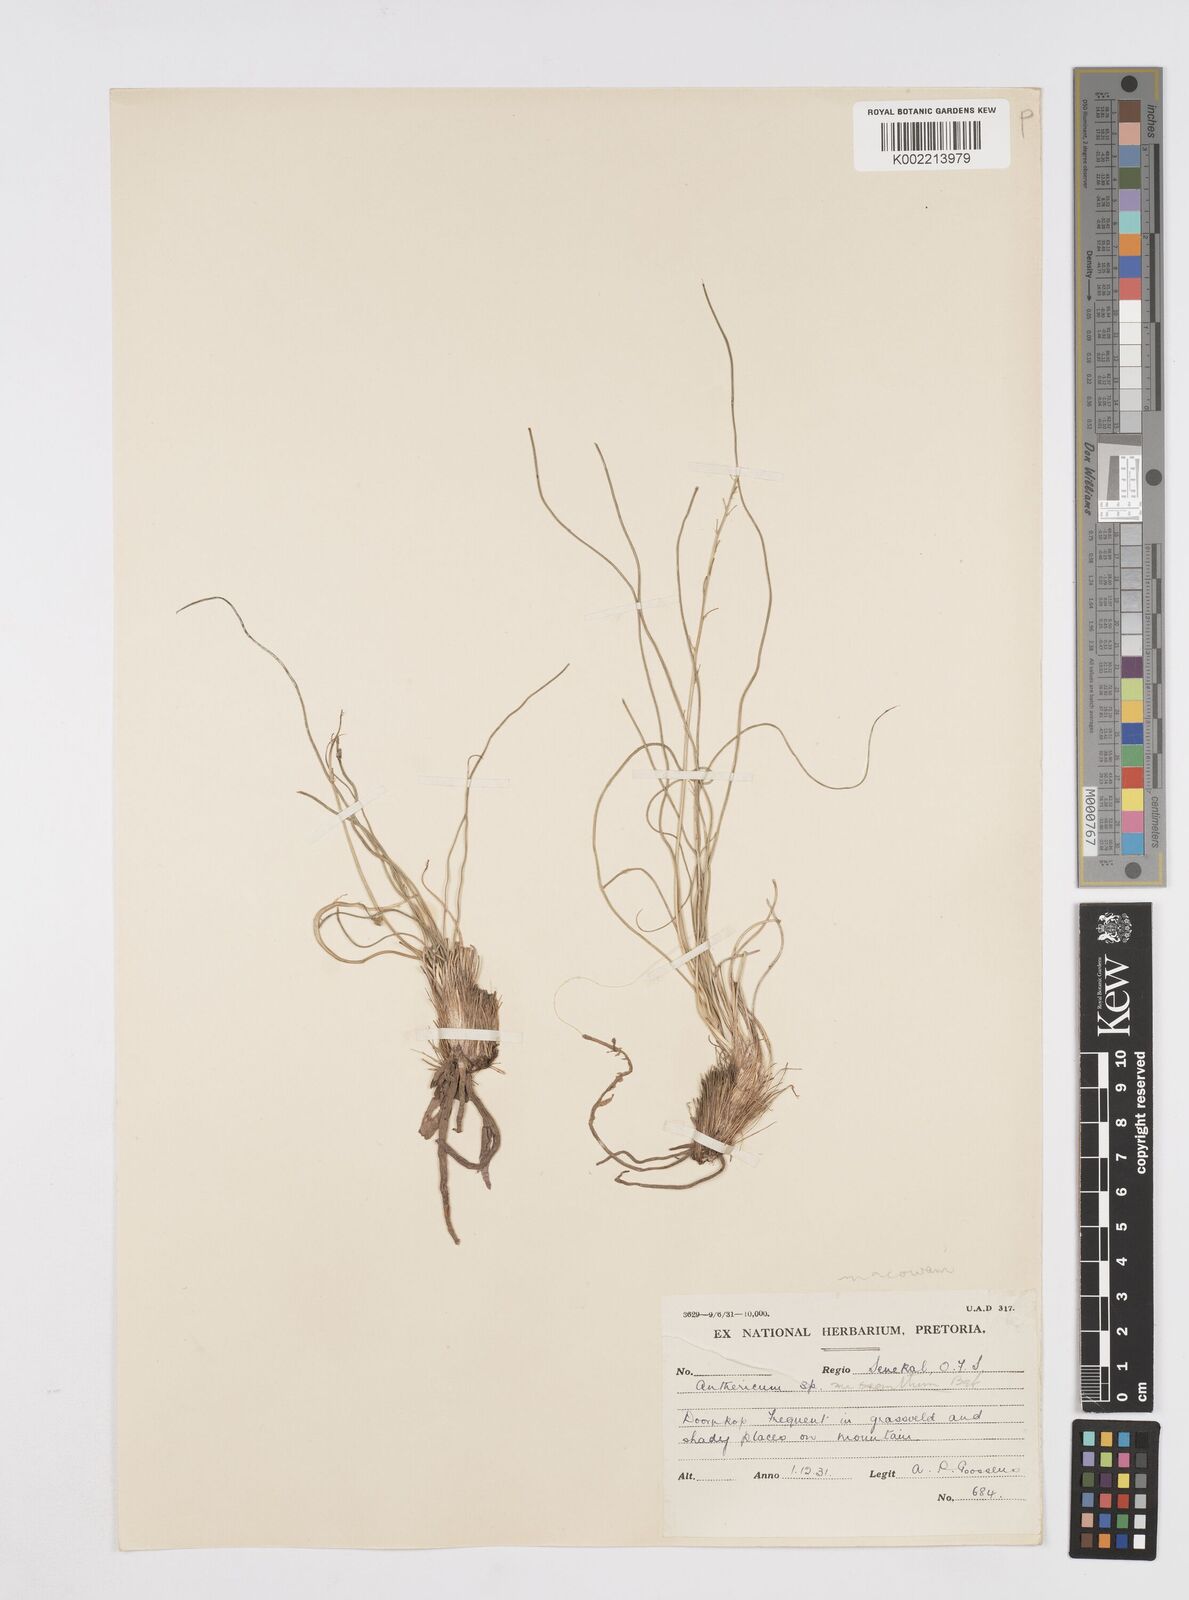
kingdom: Plantae
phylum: Tracheophyta
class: Liliopsida
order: Asparagales
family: Asphodelaceae
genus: Trachyandra
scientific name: Trachyandra asperata
